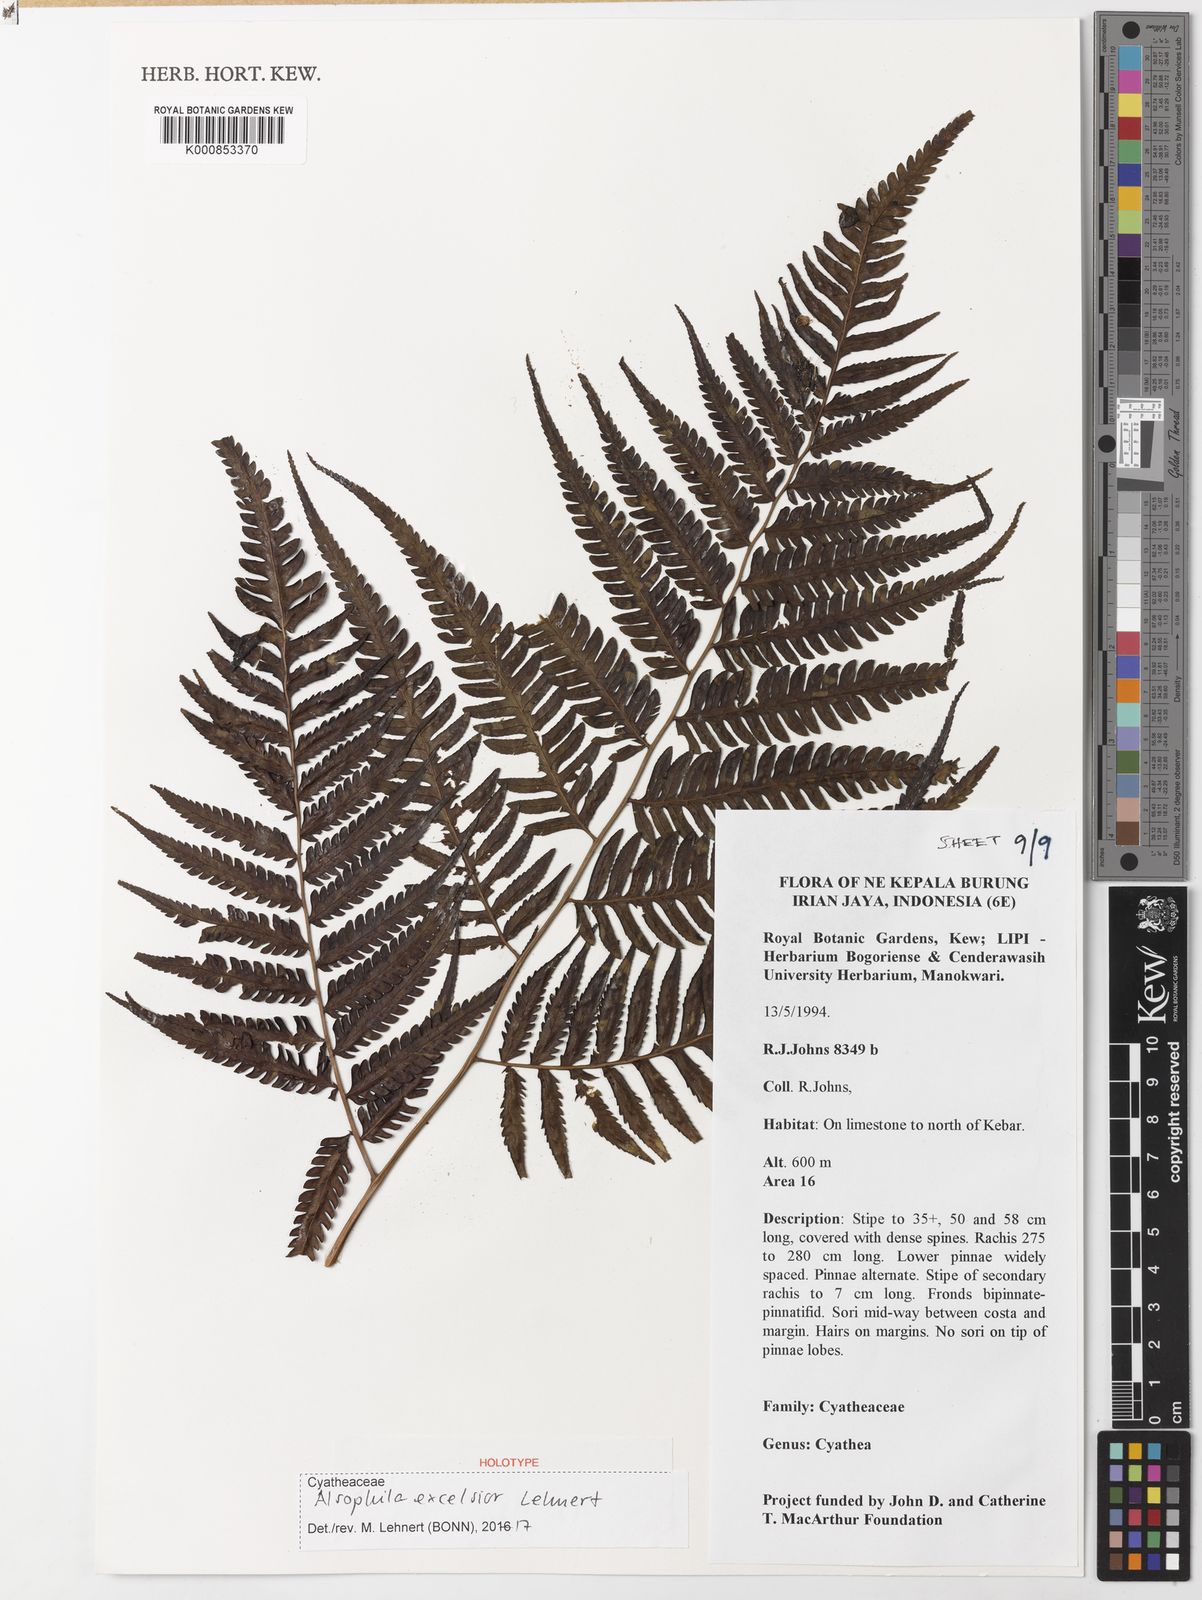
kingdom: Plantae
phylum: Tracheophyta
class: Polypodiopsida
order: Cyatheales
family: Cyatheaceae
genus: Alsophila
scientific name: Alsophila excelsior
